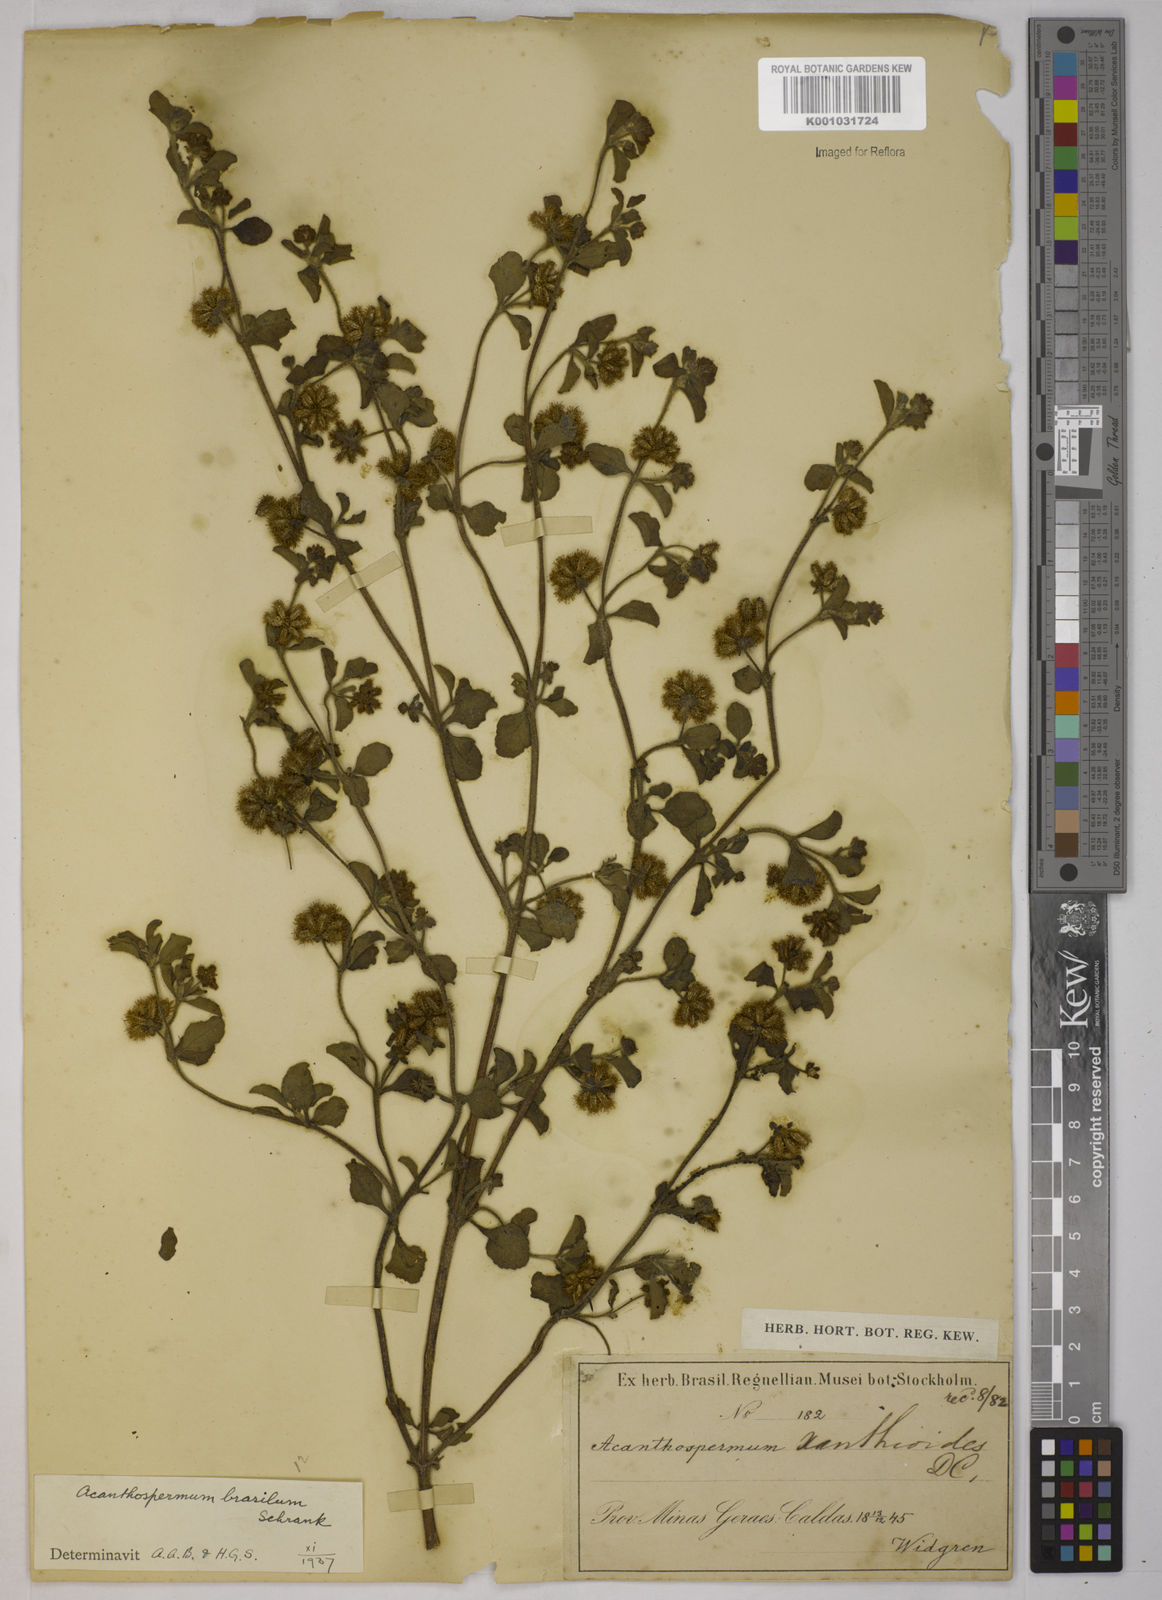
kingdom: Plantae
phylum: Tracheophyta
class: Magnoliopsida
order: Asterales
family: Asteraceae
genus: Acanthospermum
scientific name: Acanthospermum australe
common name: Paraguayan starbur
